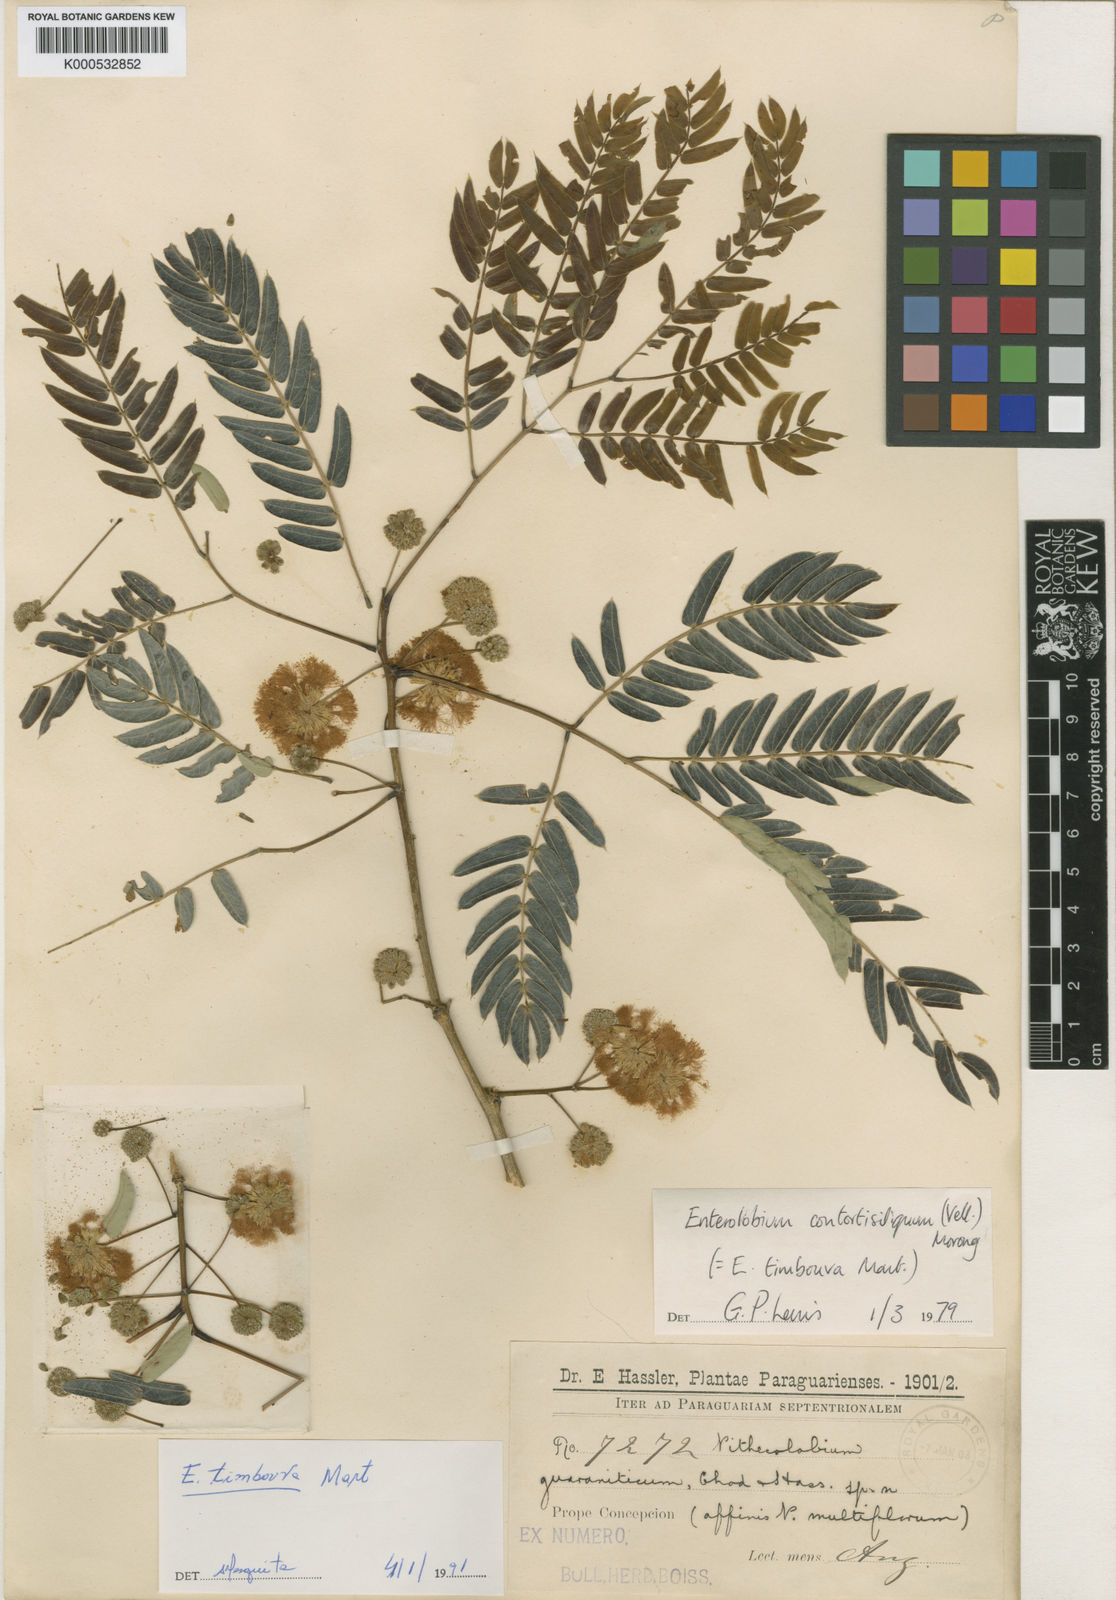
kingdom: Plantae
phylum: Tracheophyta
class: Magnoliopsida
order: Fabales
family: Fabaceae
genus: Enterolobium
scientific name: Enterolobium timbouva
